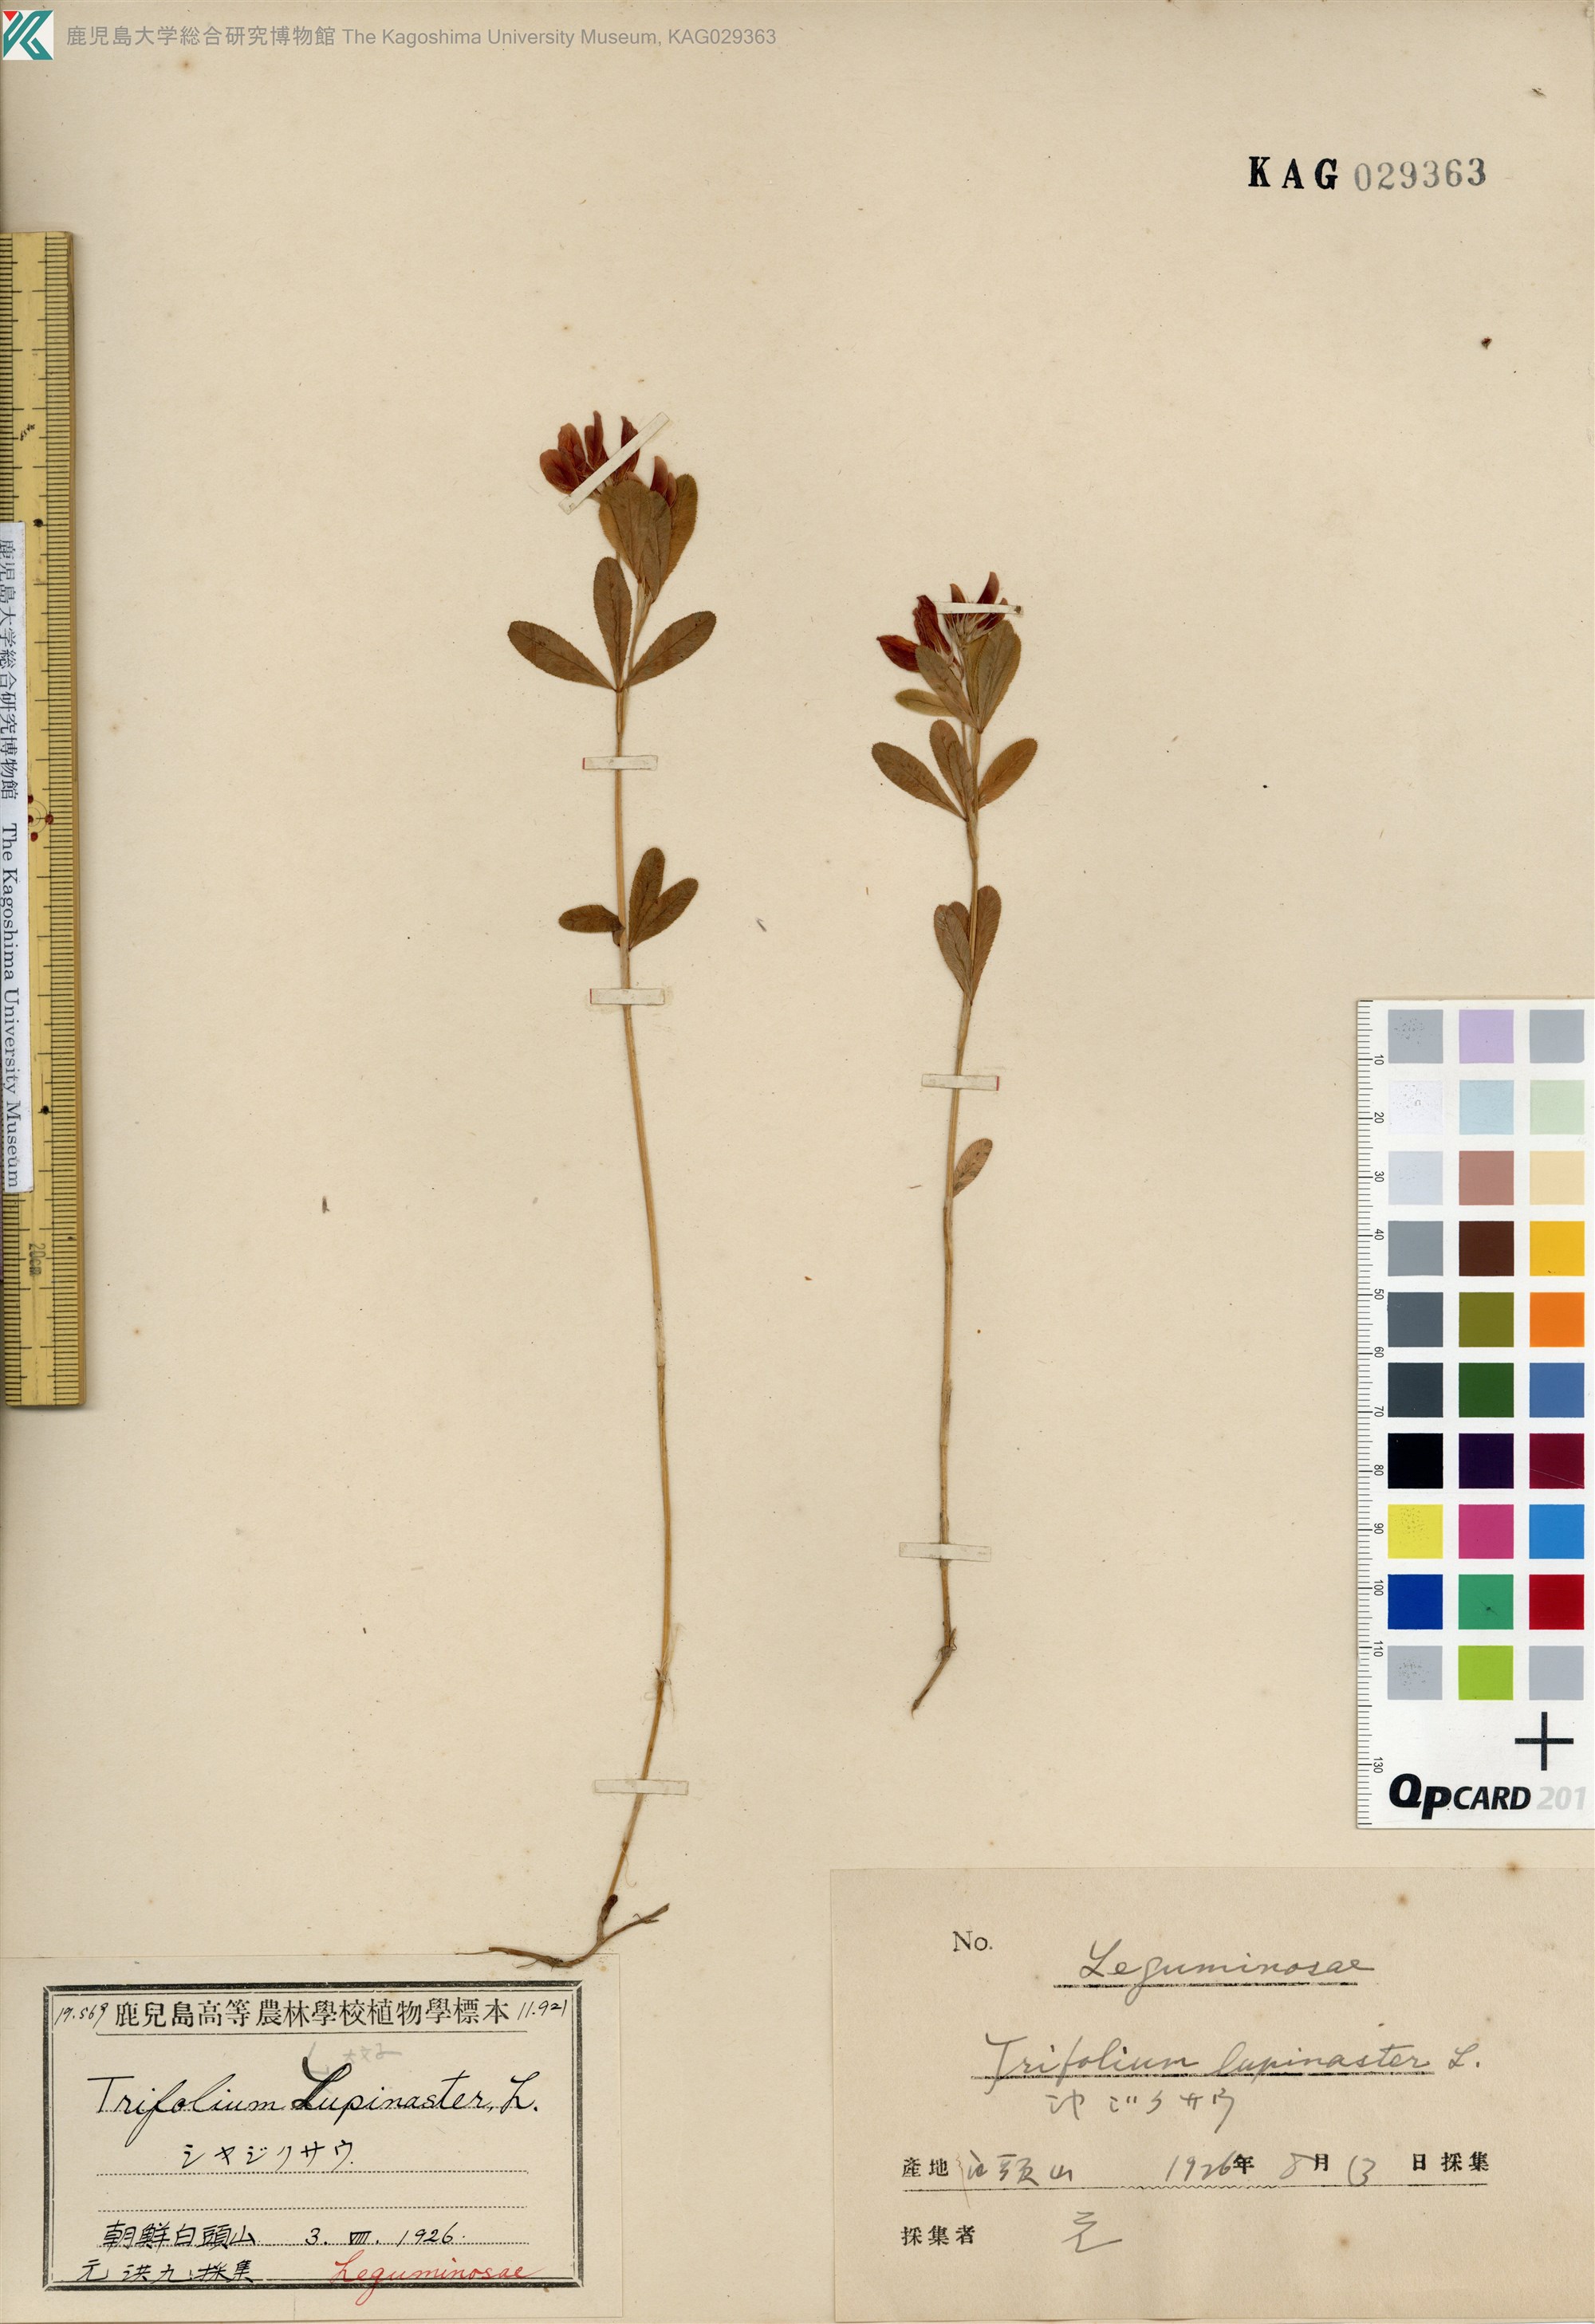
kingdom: Plantae
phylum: Tracheophyta
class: Magnoliopsida
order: Fabales
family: Fabaceae
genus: Trifolium
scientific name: Trifolium lupinaster
